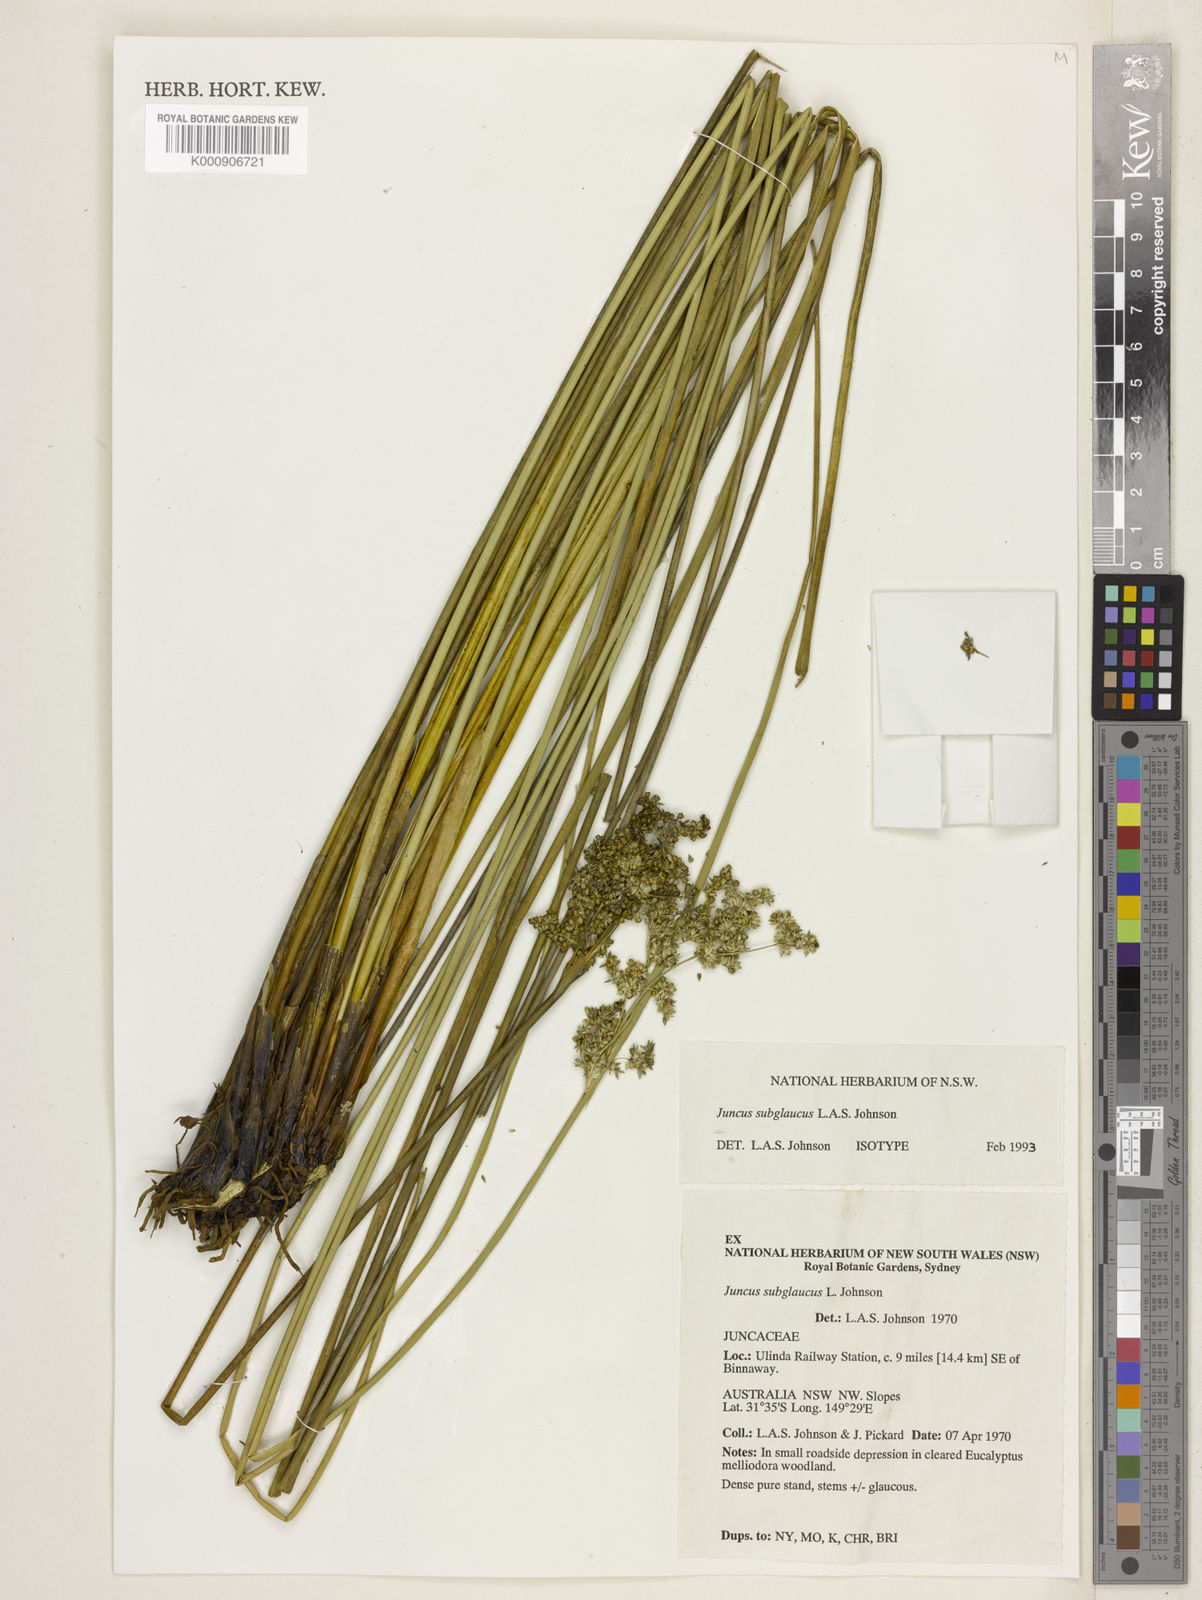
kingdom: Plantae
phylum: Tracheophyta
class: Liliopsida
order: Poales
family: Juncaceae
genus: Juncus
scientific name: Juncus subglaucus
